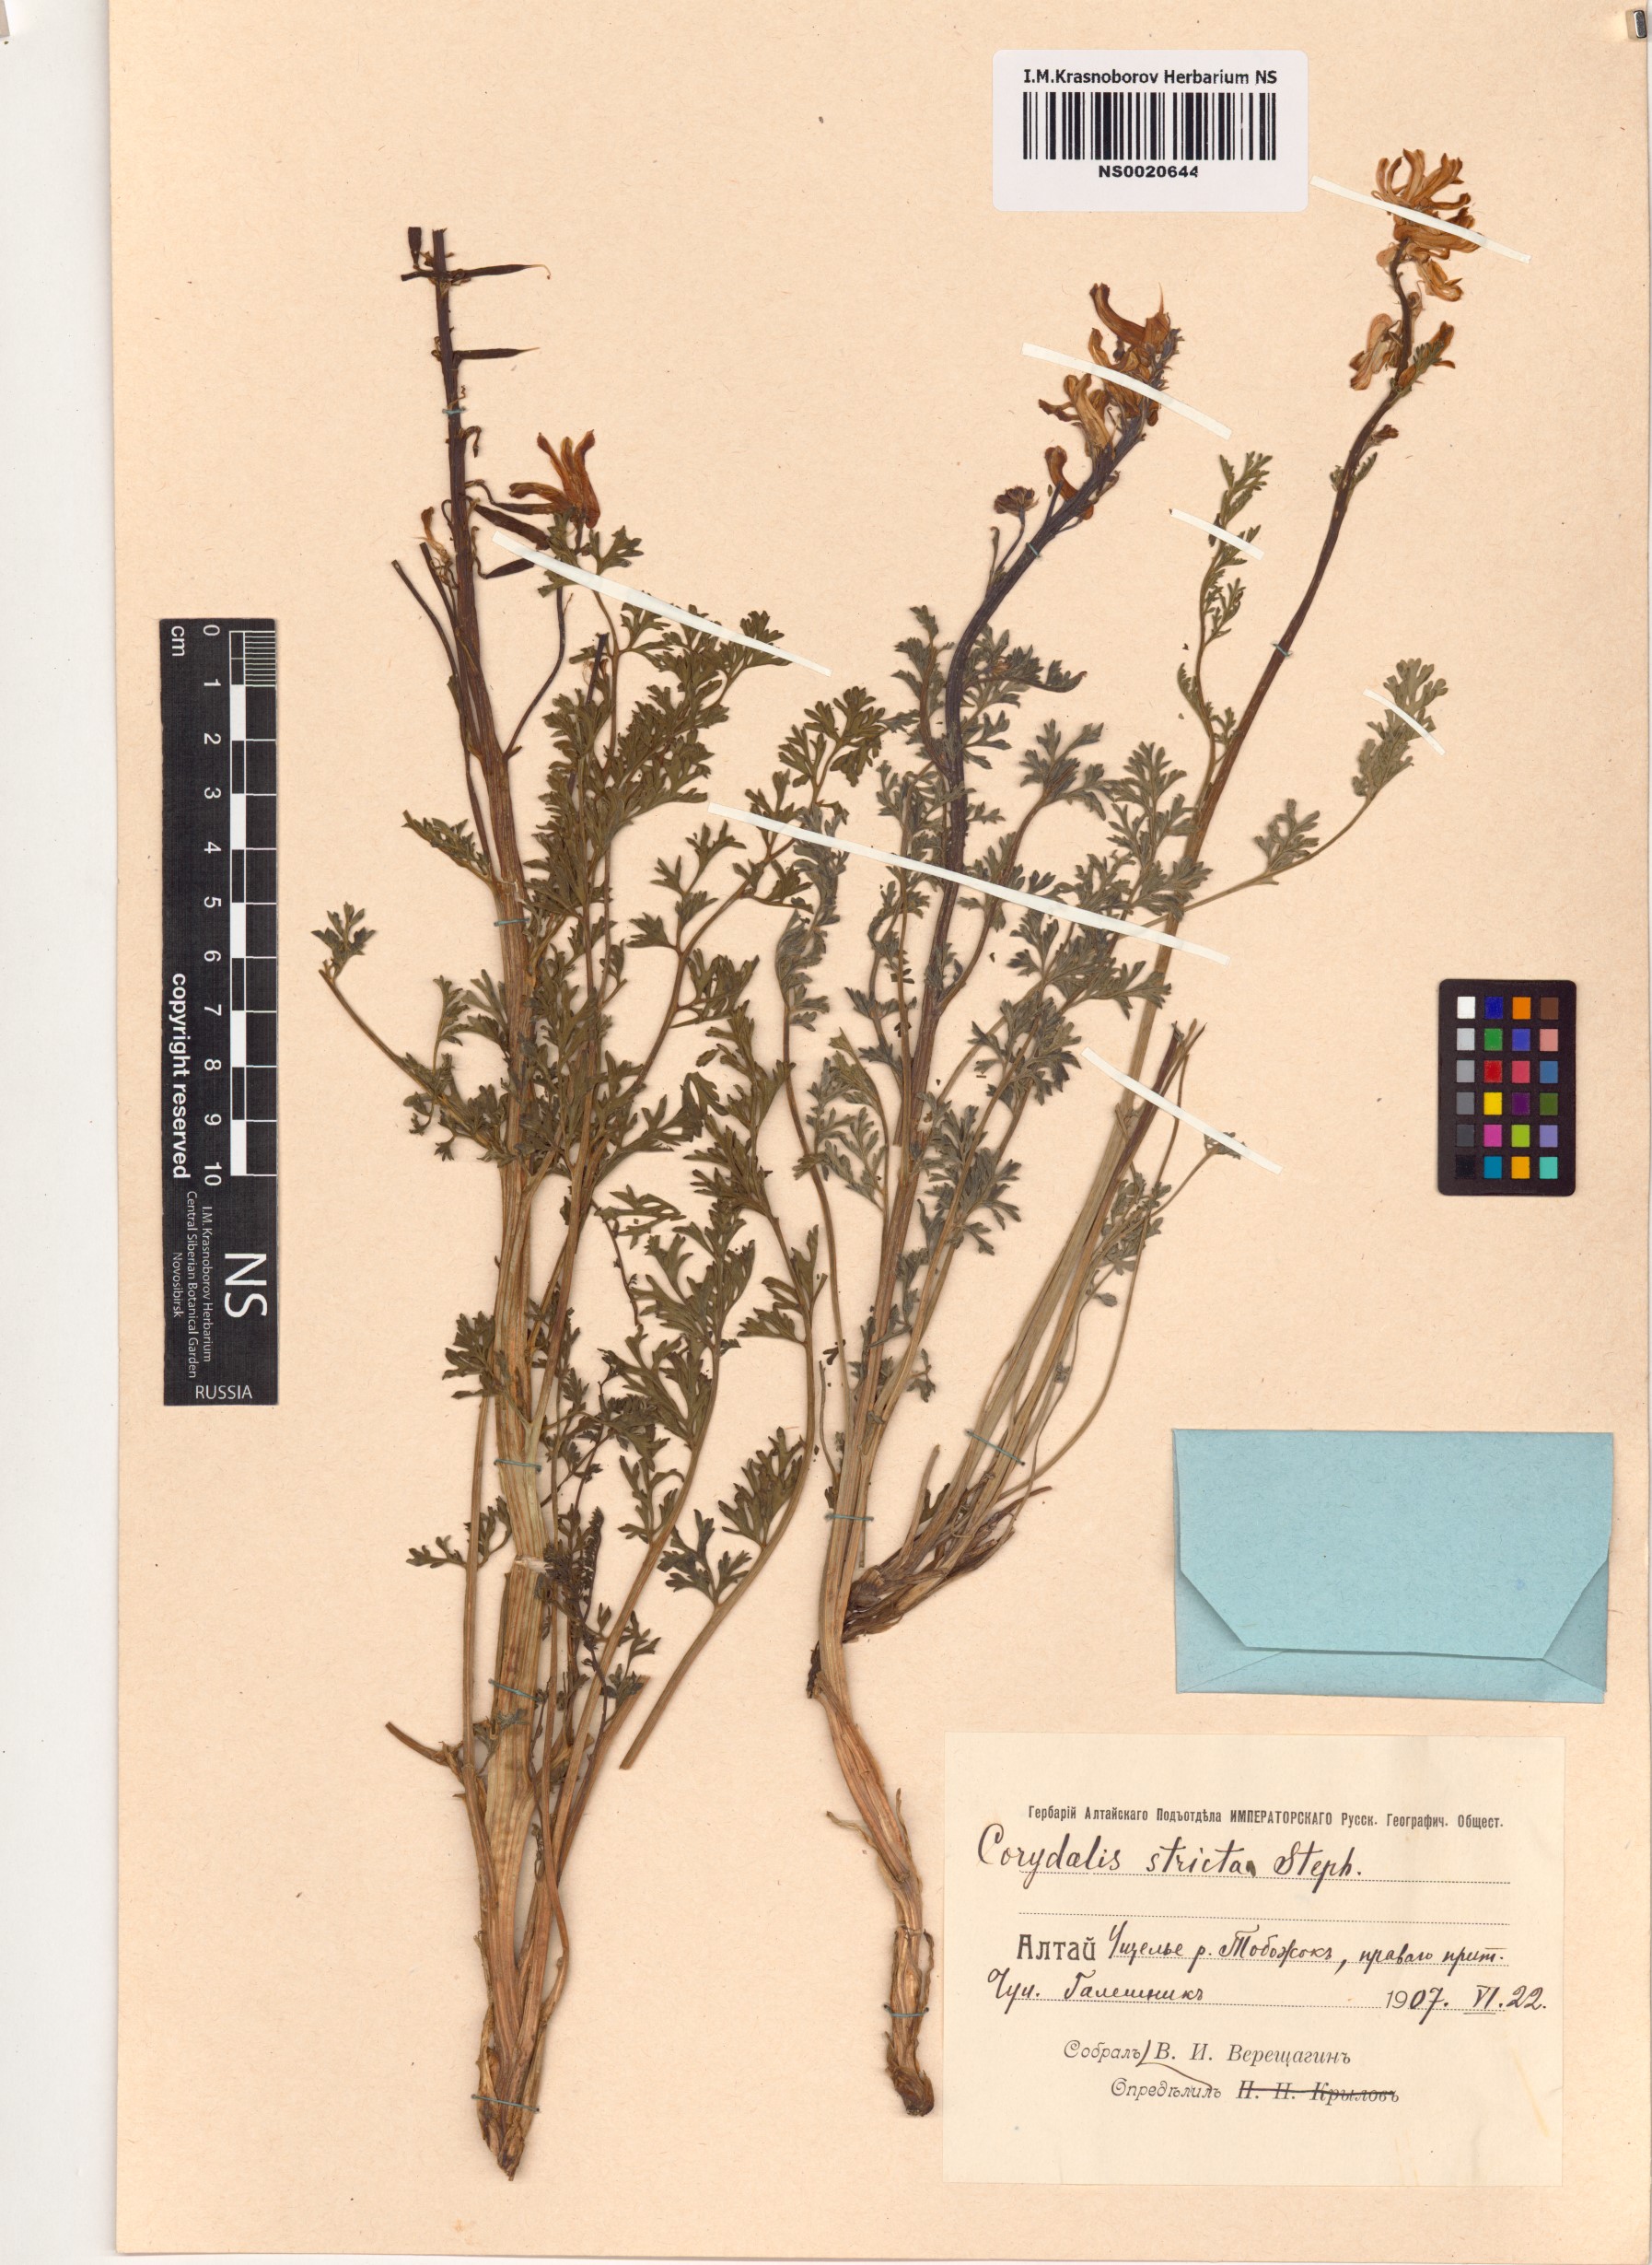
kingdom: Plantae
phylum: Tracheophyta
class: Magnoliopsida
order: Ranunculales
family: Papaveraceae
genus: Corydalis
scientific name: Corydalis stricta
